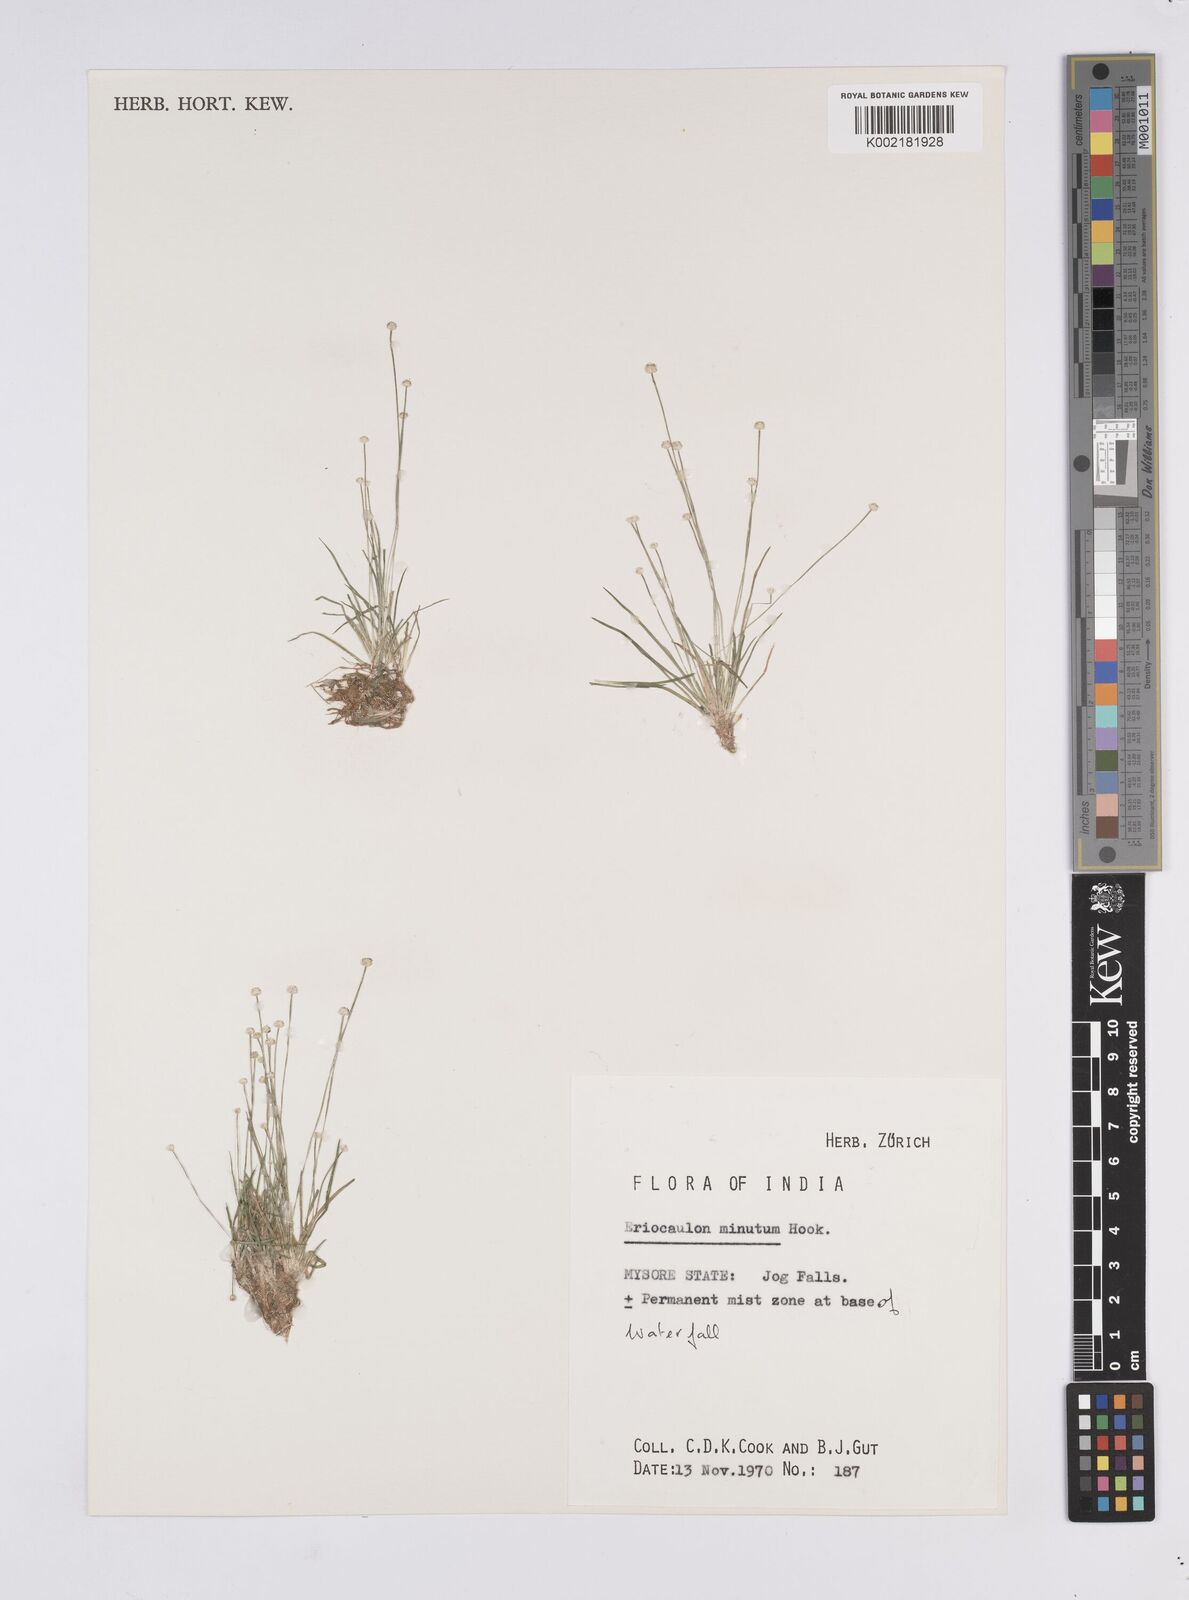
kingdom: Plantae
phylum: Tracheophyta
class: Liliopsida
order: Poales
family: Eriocaulaceae
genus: Eriocaulon
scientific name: Eriocaulon minutum
